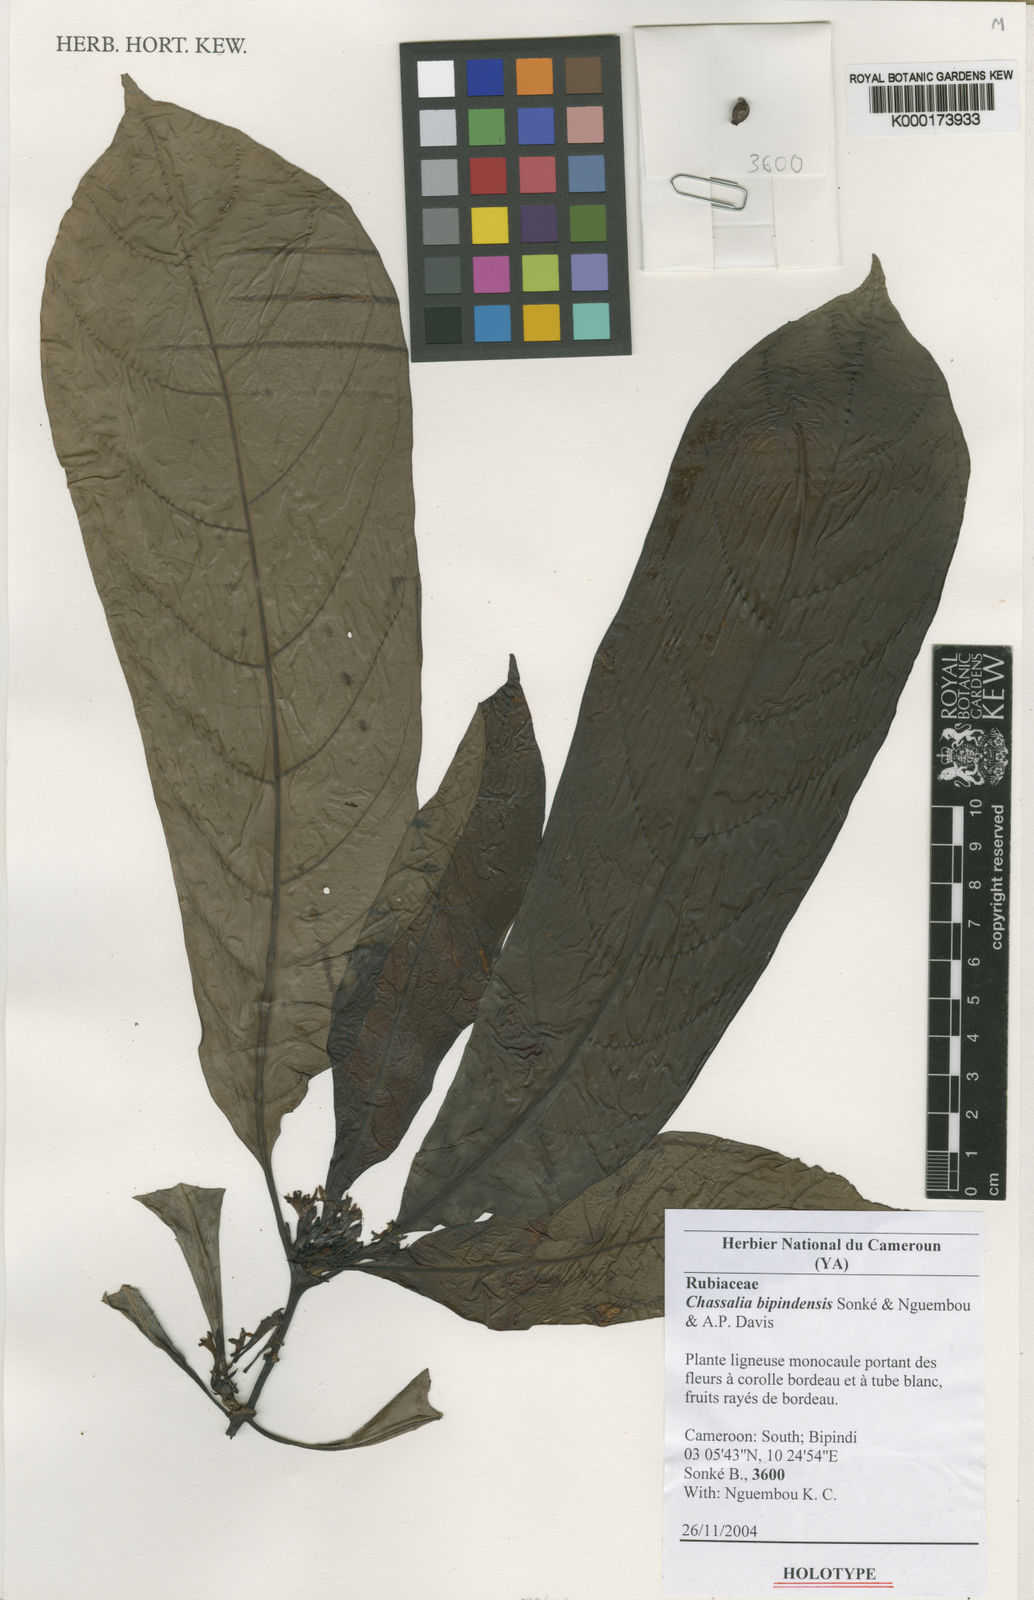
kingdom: Plantae
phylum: Tracheophyta
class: Magnoliopsida
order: Gentianales
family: Rubiaceae
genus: Chassalia
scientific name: Chassalia
